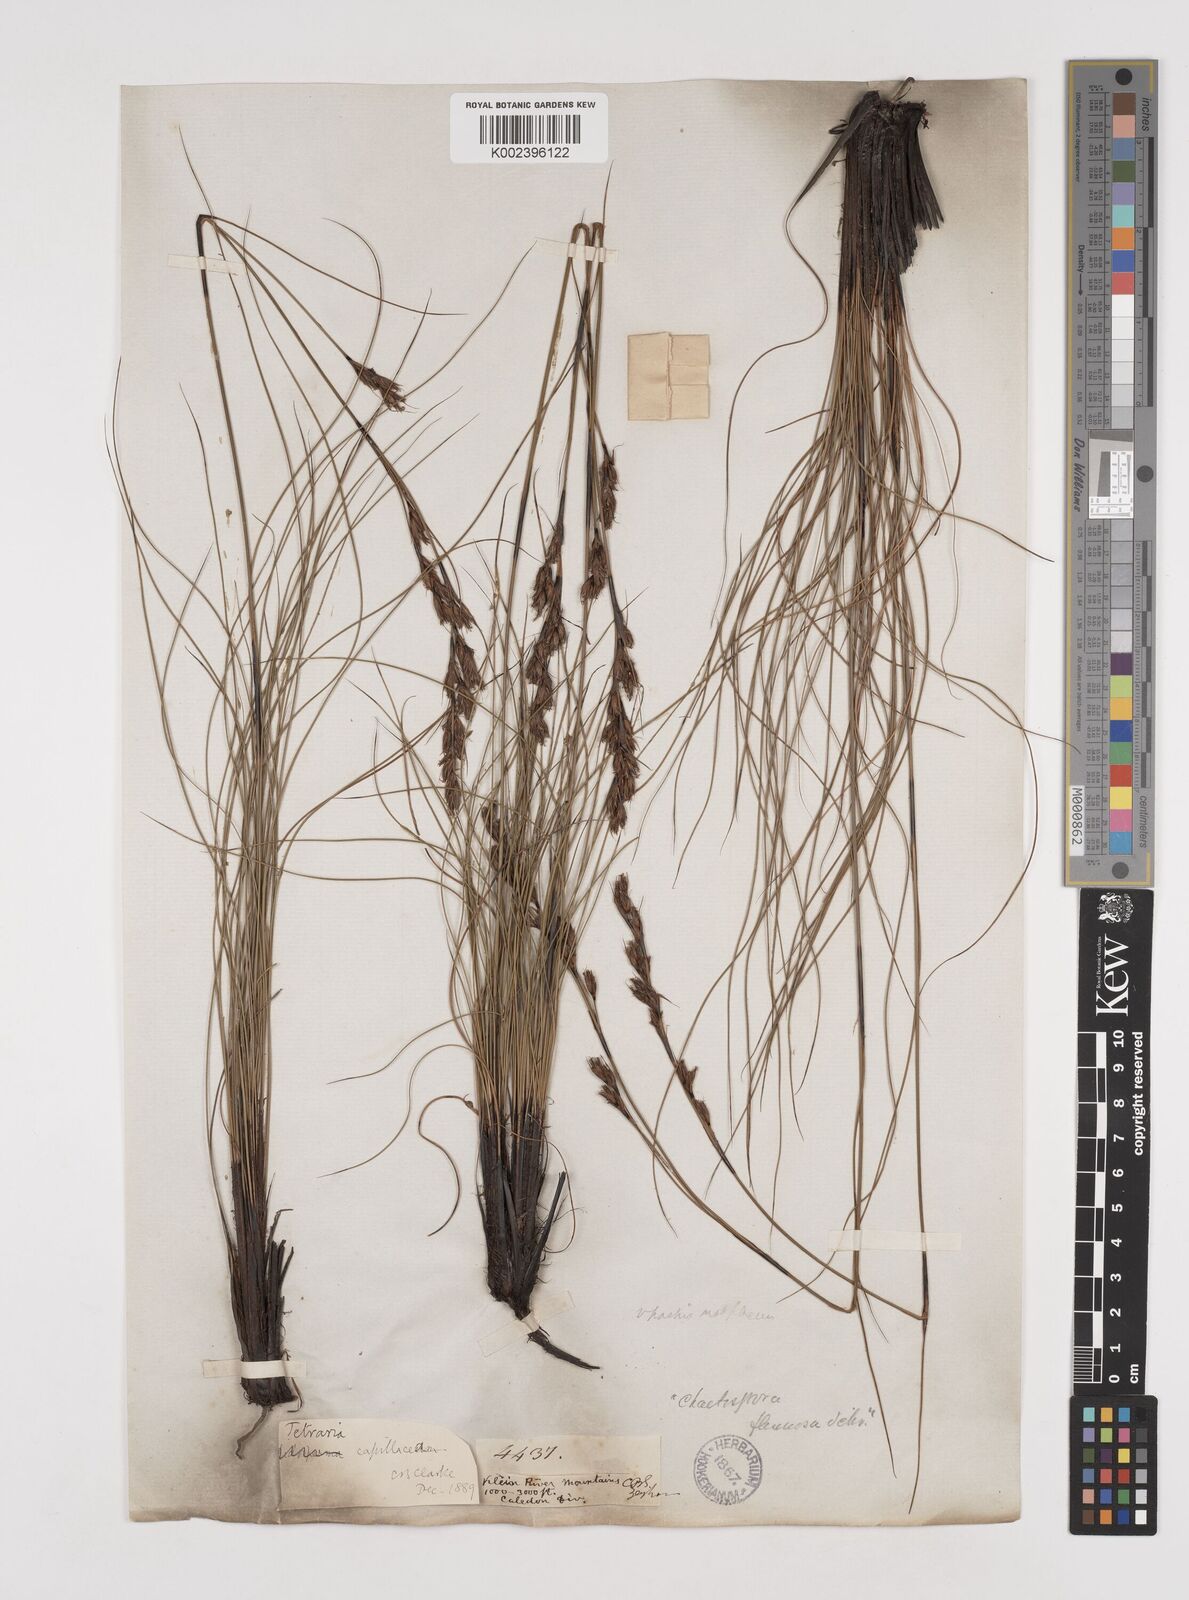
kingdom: Plantae
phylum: Tracheophyta
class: Liliopsida
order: Poales
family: Cyperaceae
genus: Tetraria
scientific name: Tetraria capillacea
